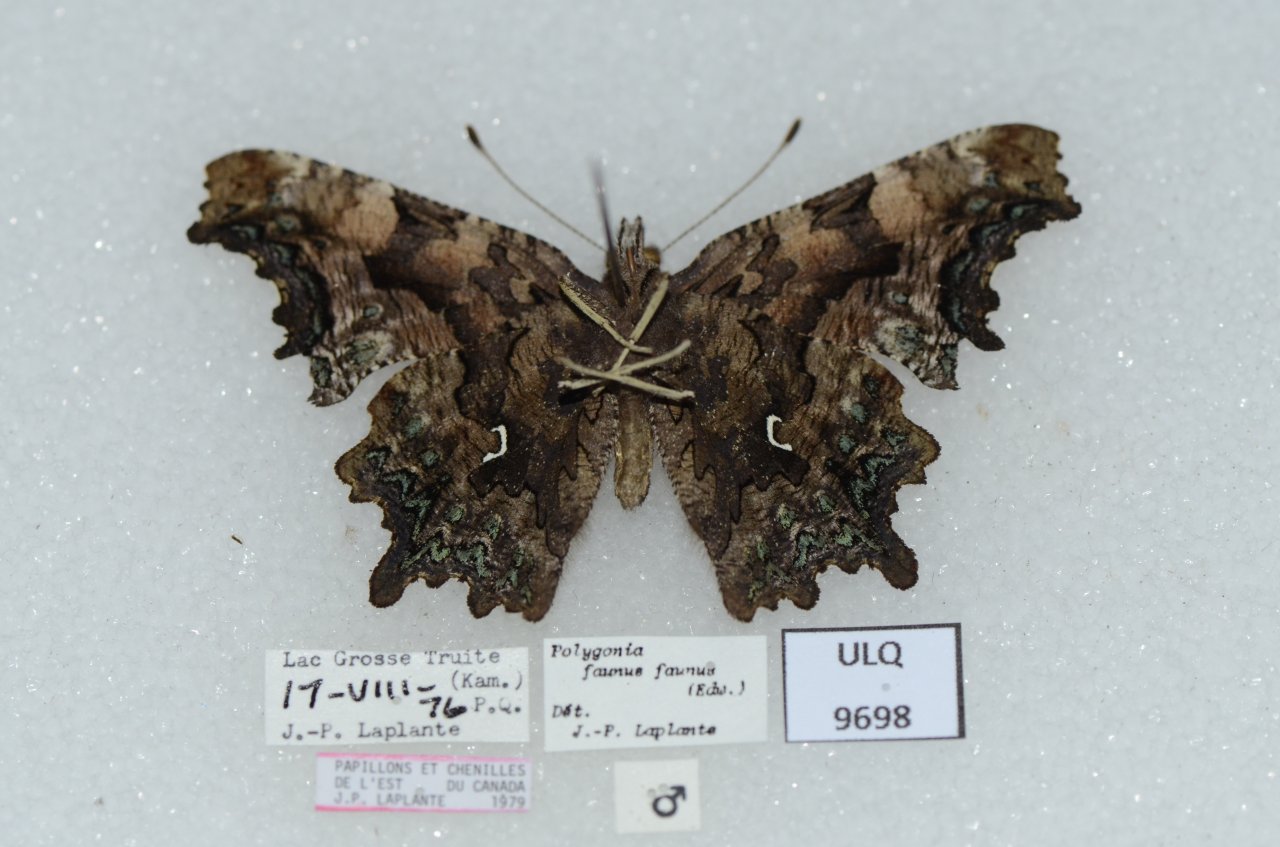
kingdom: Animalia
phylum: Arthropoda
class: Insecta
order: Lepidoptera
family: Nymphalidae
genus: Polygonia
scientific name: Polygonia faunus
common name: Green Comma
